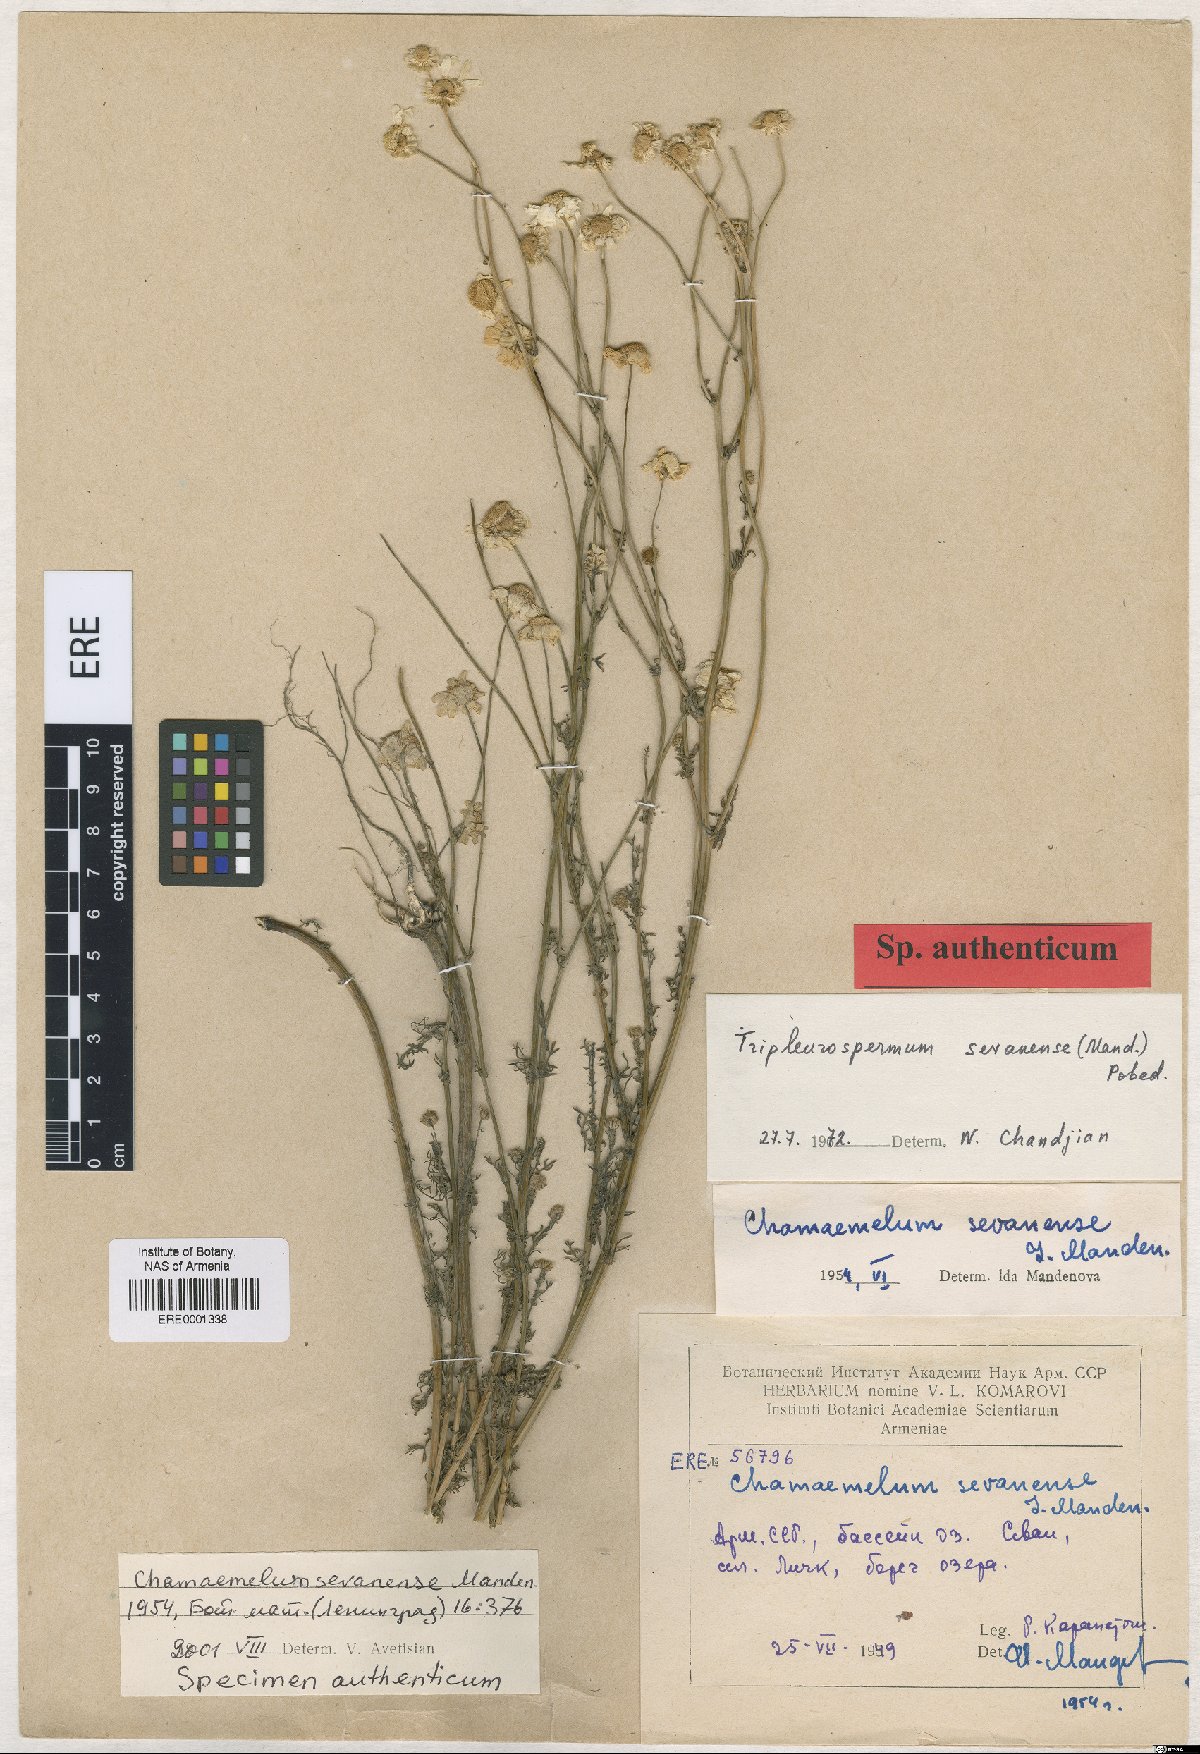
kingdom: Plantae
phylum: Tracheophyta
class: Magnoliopsida
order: Asterales
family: Asteraceae
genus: Tripleurospermum
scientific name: Tripleurospermum sevanense
